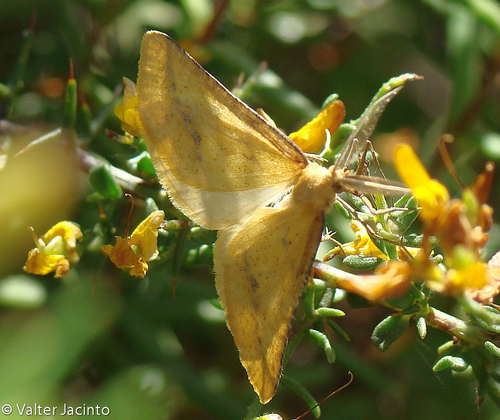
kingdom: Animalia
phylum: Arthropoda
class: Insecta
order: Lepidoptera
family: Geometridae
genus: Aspitates
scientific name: Aspitates ochrearia
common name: Yellow belle
